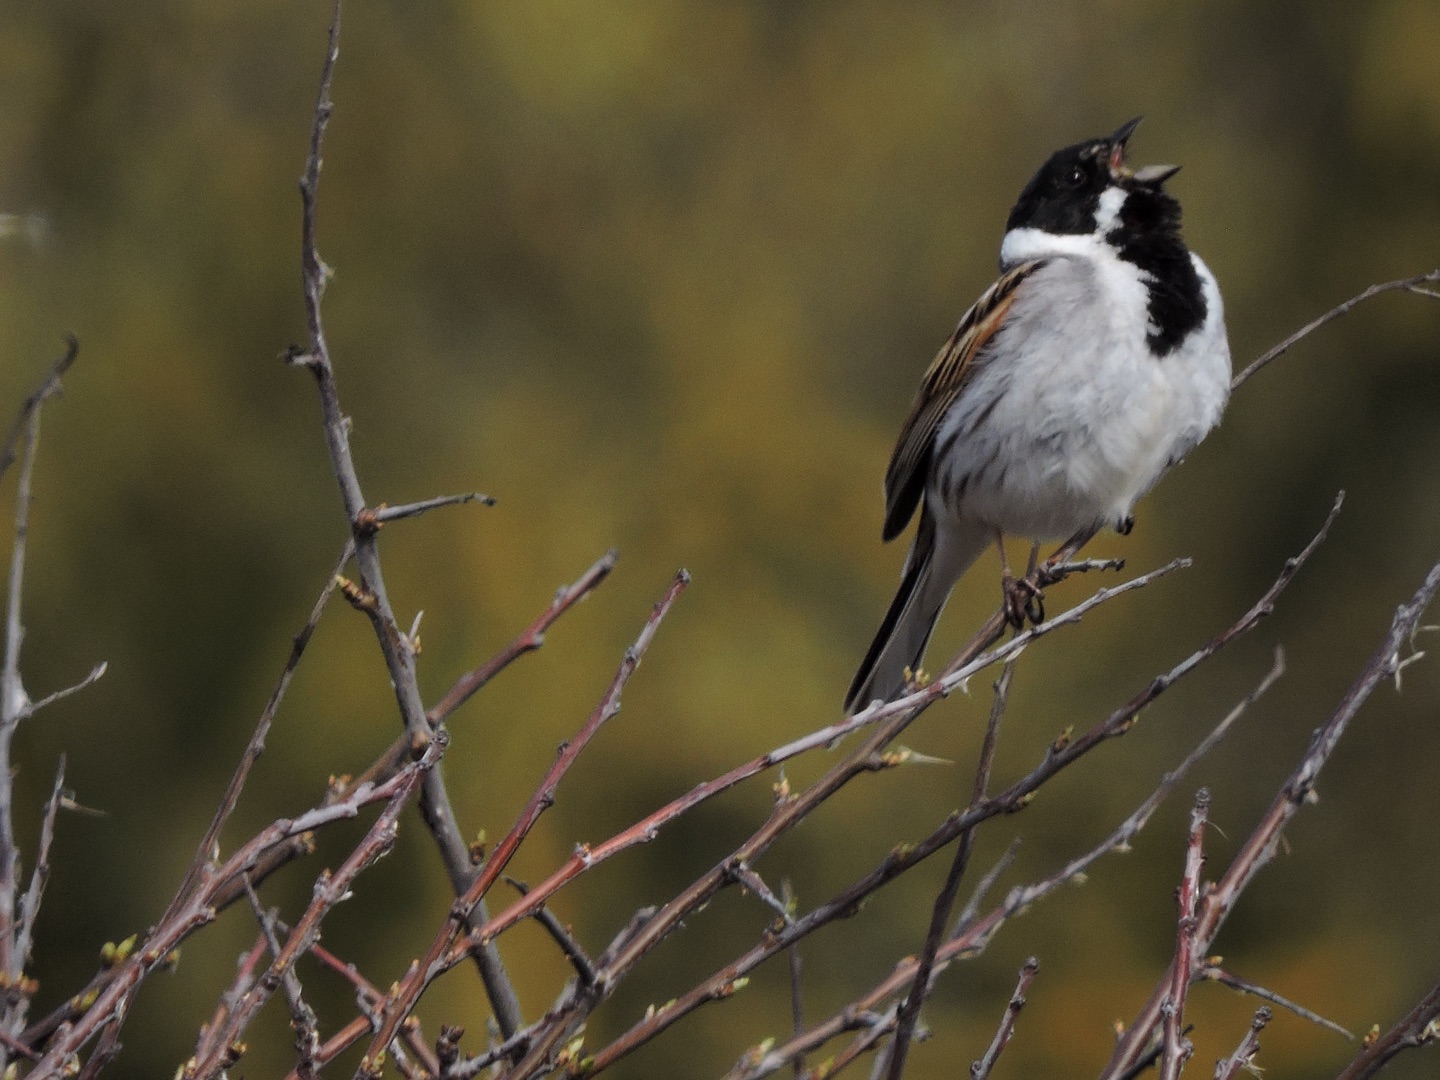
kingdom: Animalia
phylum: Chordata
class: Aves
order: Passeriformes
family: Emberizidae
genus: Emberiza
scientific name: Emberiza schoeniclus
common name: Rørspurv
